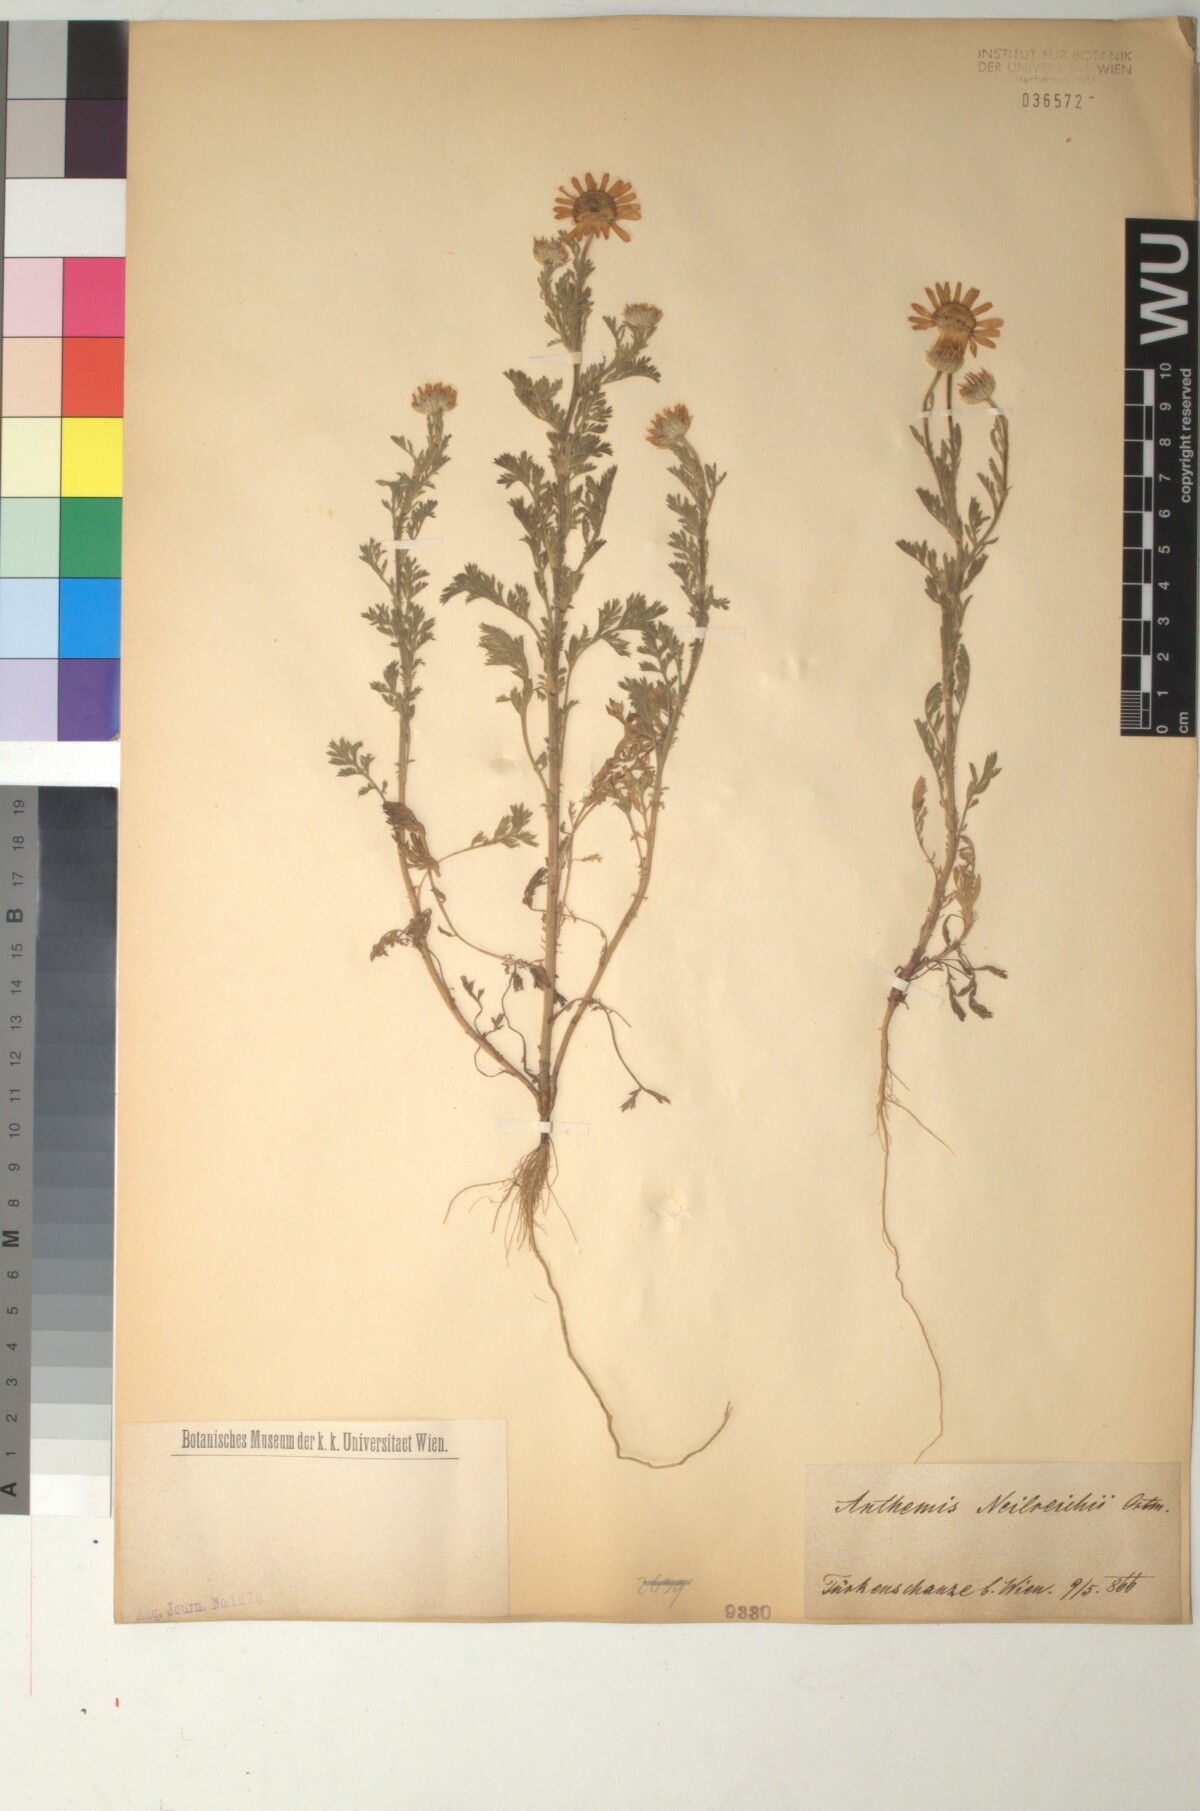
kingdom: Plantae
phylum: Tracheophyta
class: Magnoliopsida
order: Asterales
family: Asteraceae
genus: Anthemis
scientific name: Anthemis ruthenica
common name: Eastern chamomile
